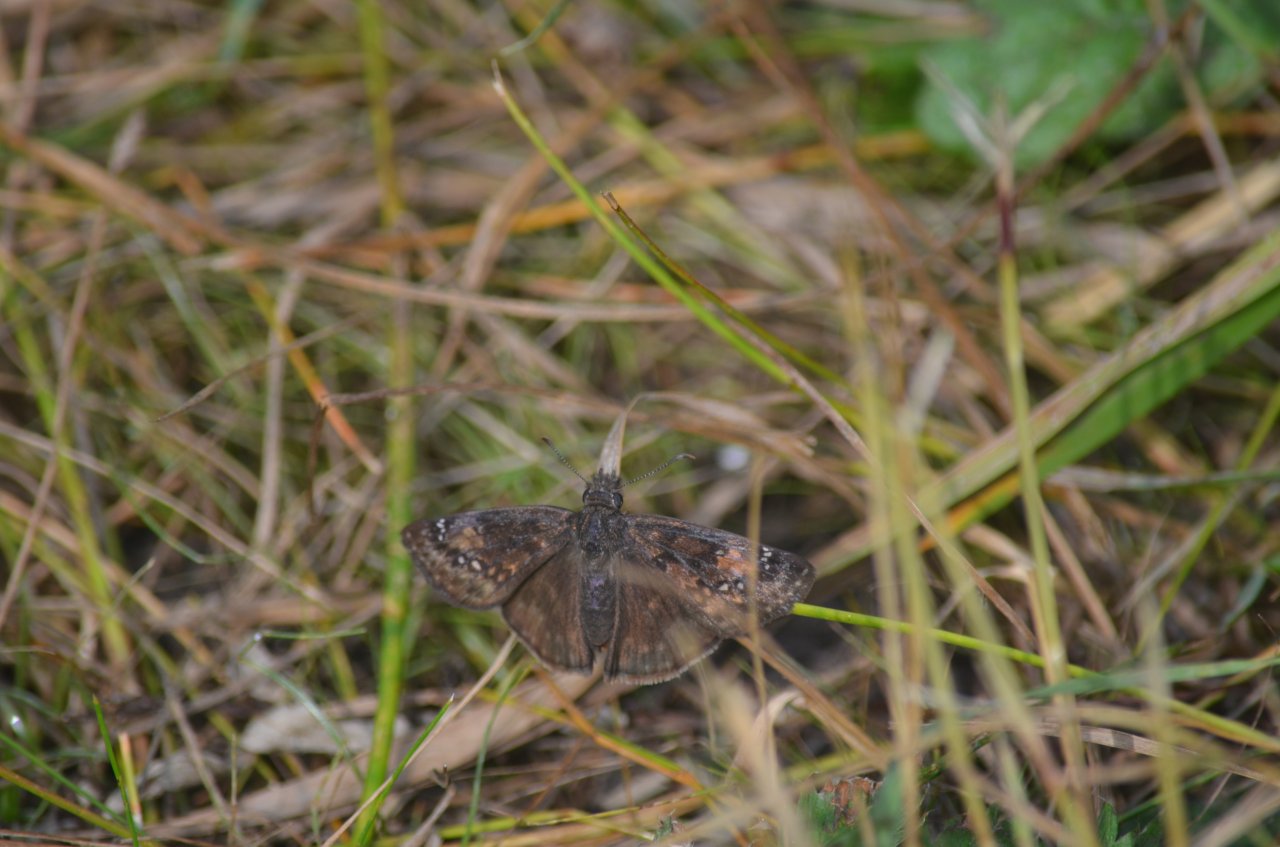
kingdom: Animalia
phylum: Arthropoda
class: Insecta
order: Lepidoptera
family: Hesperiidae
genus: Gesta
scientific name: Gesta
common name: Wild Indigo Duskywing
